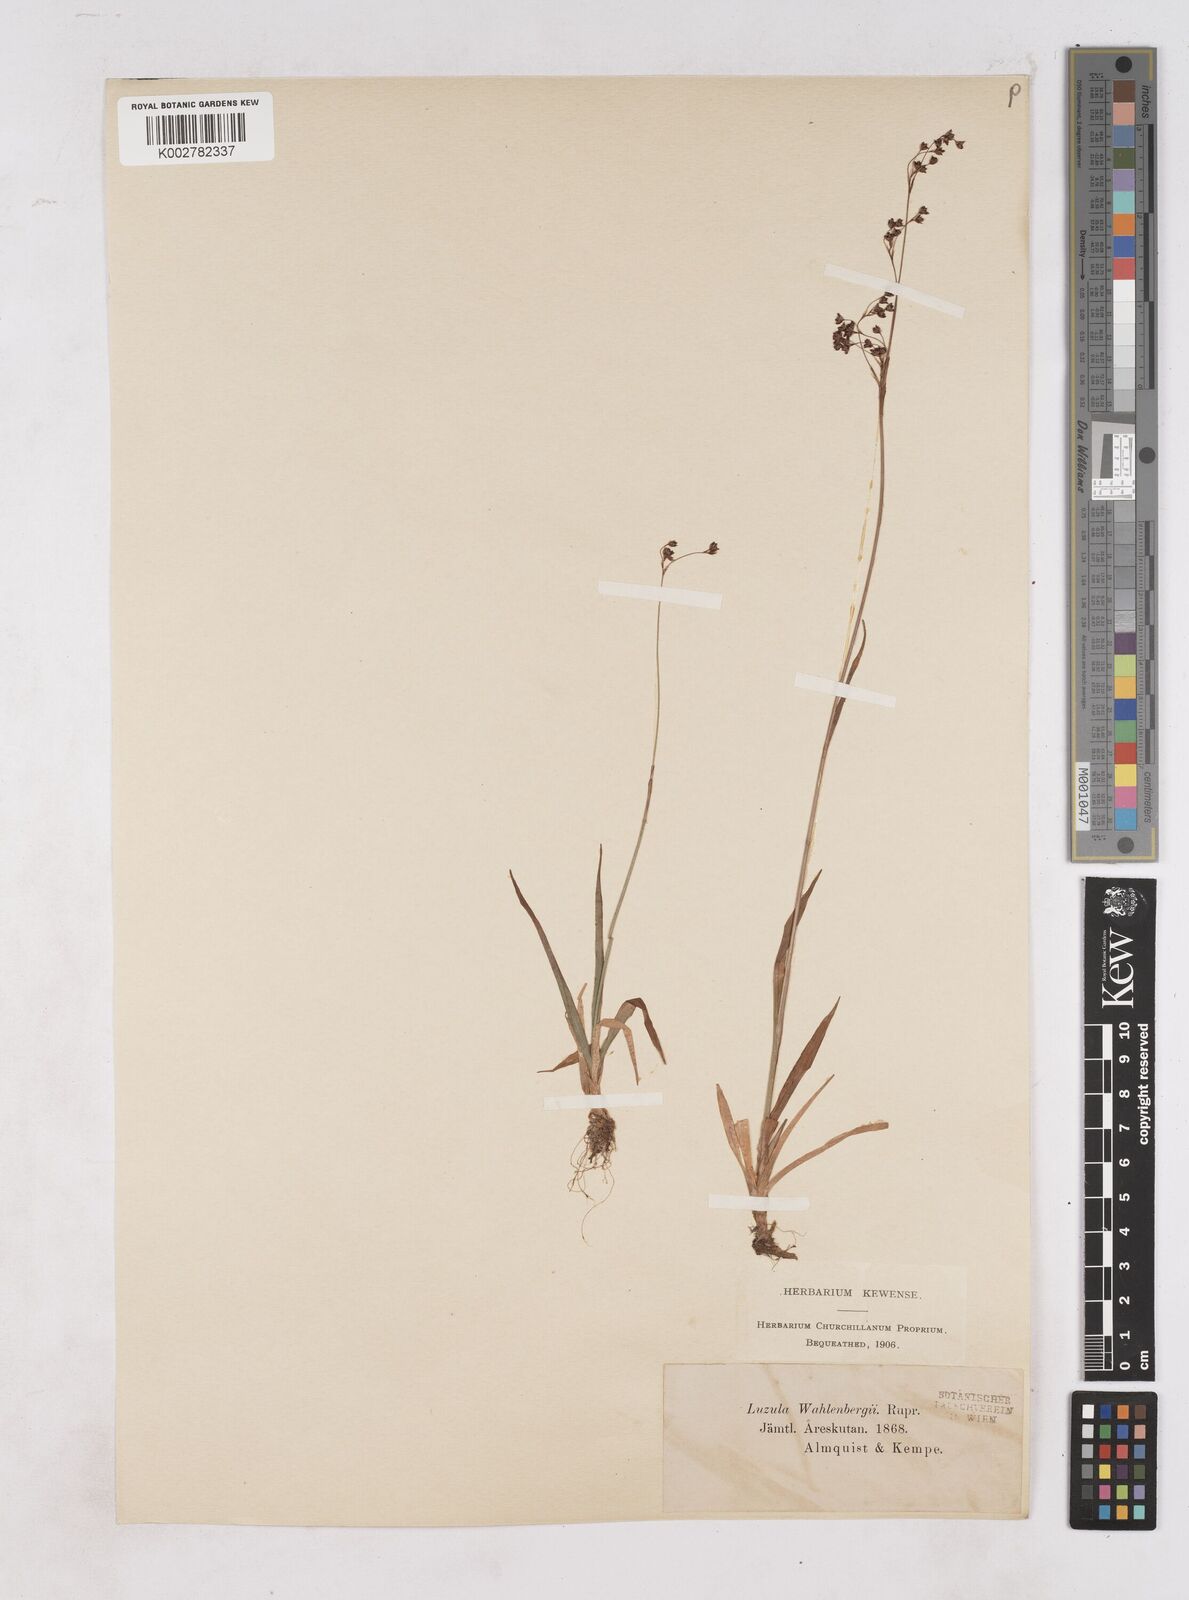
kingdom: Plantae
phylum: Tracheophyta
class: Liliopsida
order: Poales
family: Juncaceae
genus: Luzula
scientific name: Luzula alpinopilosa
